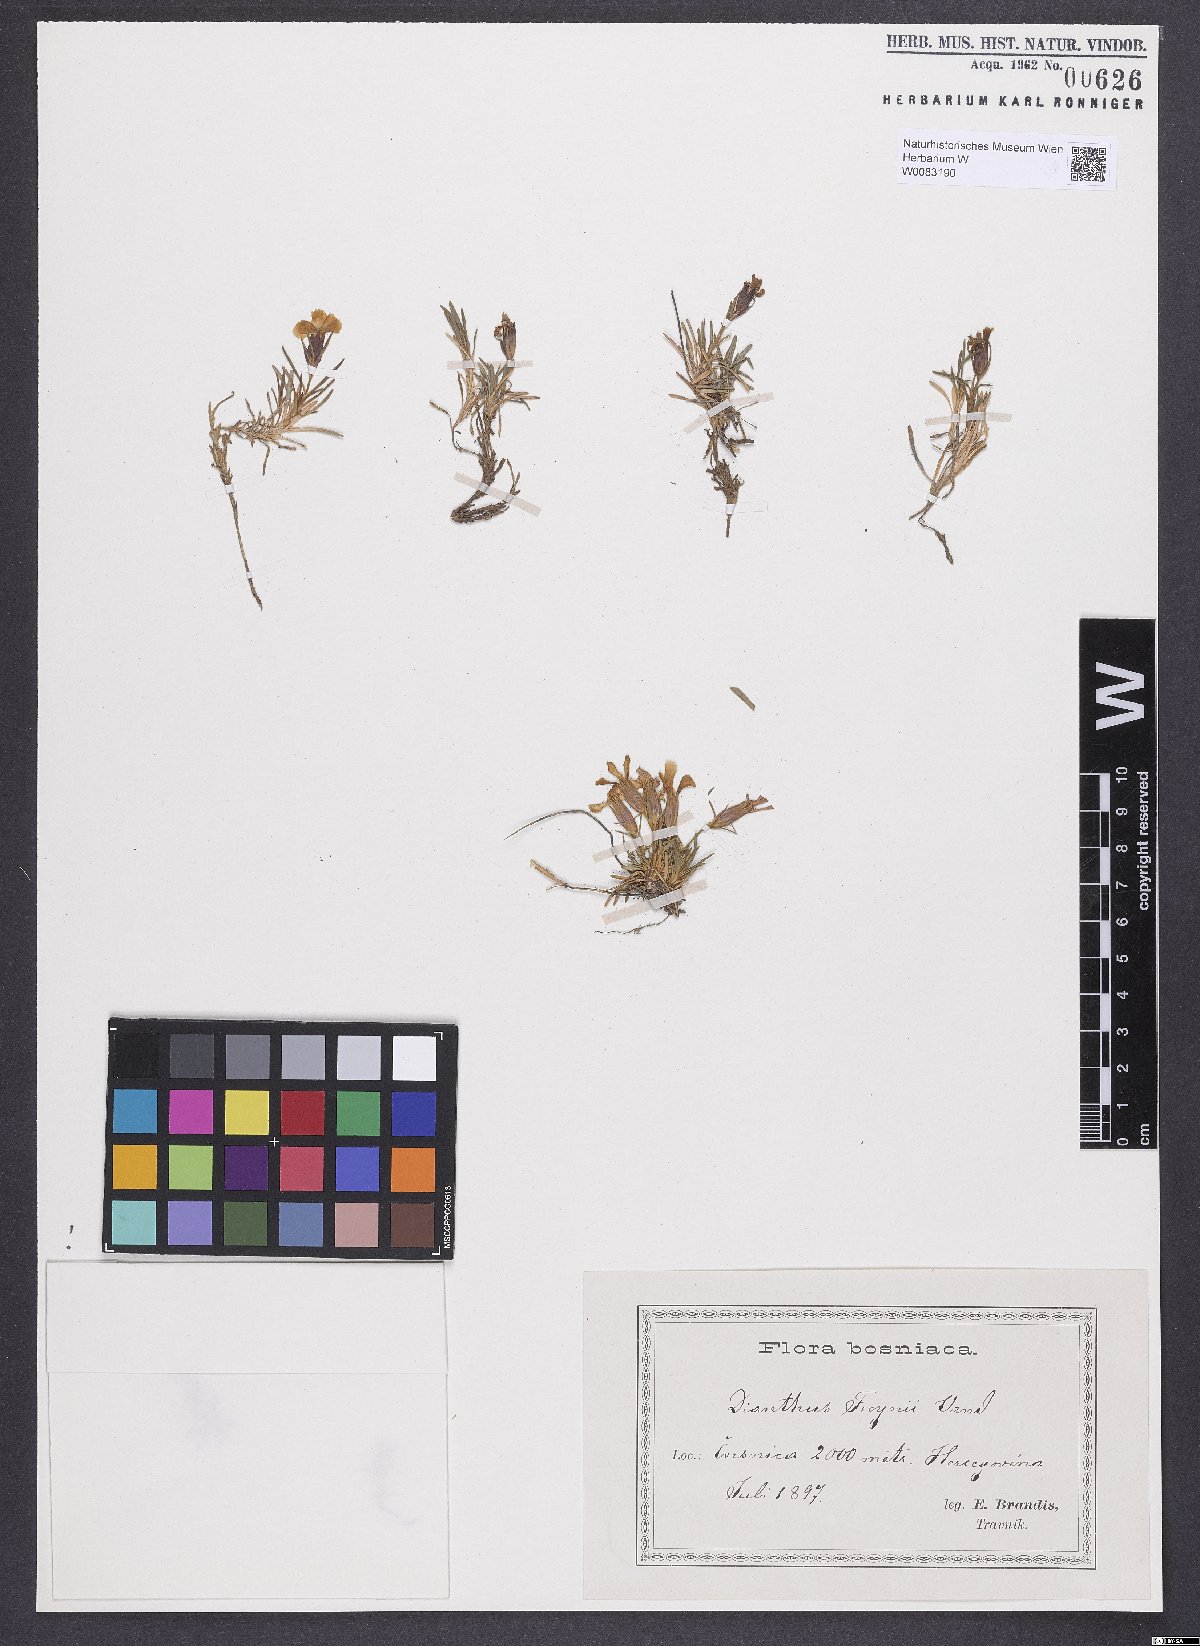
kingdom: Plantae
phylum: Tracheophyta
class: Magnoliopsida
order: Caryophyllales
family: Caryophyllaceae
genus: Dianthus
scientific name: Dianthus freynii
